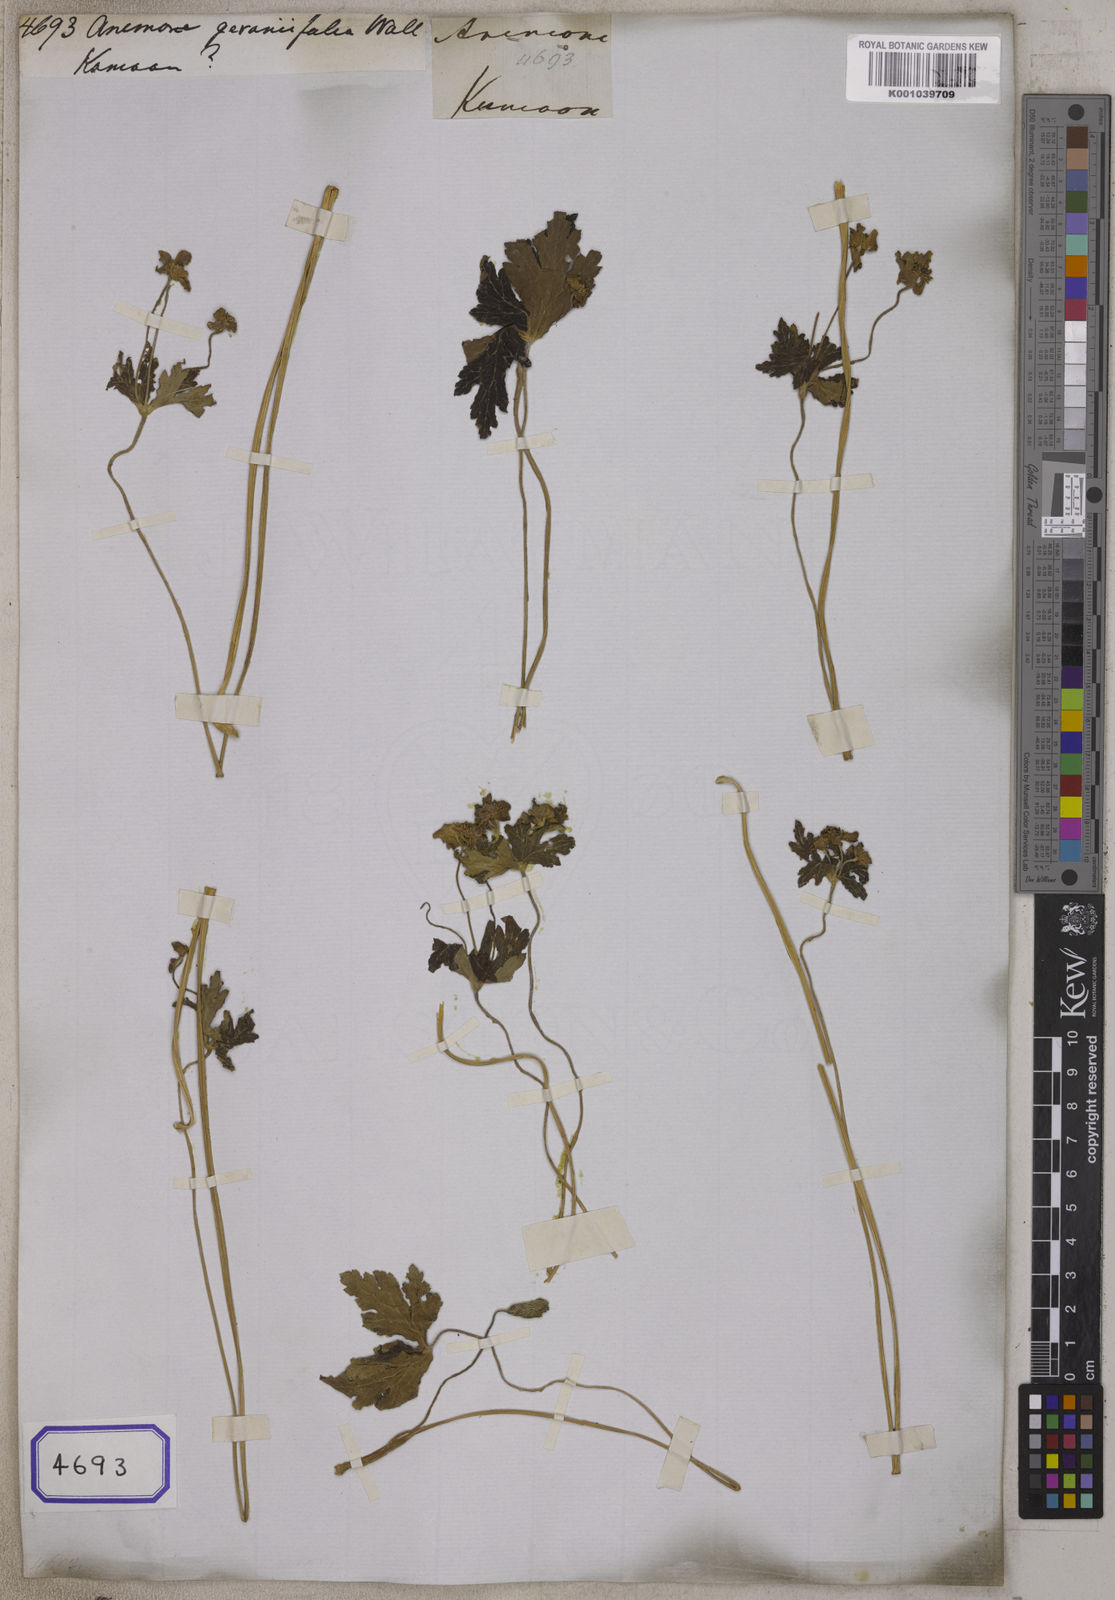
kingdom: Plantae
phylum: Tracheophyta
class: Magnoliopsida
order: Ranunculales
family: Ranunculaceae
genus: Eriocapitella
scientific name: Eriocapitella rivularis
